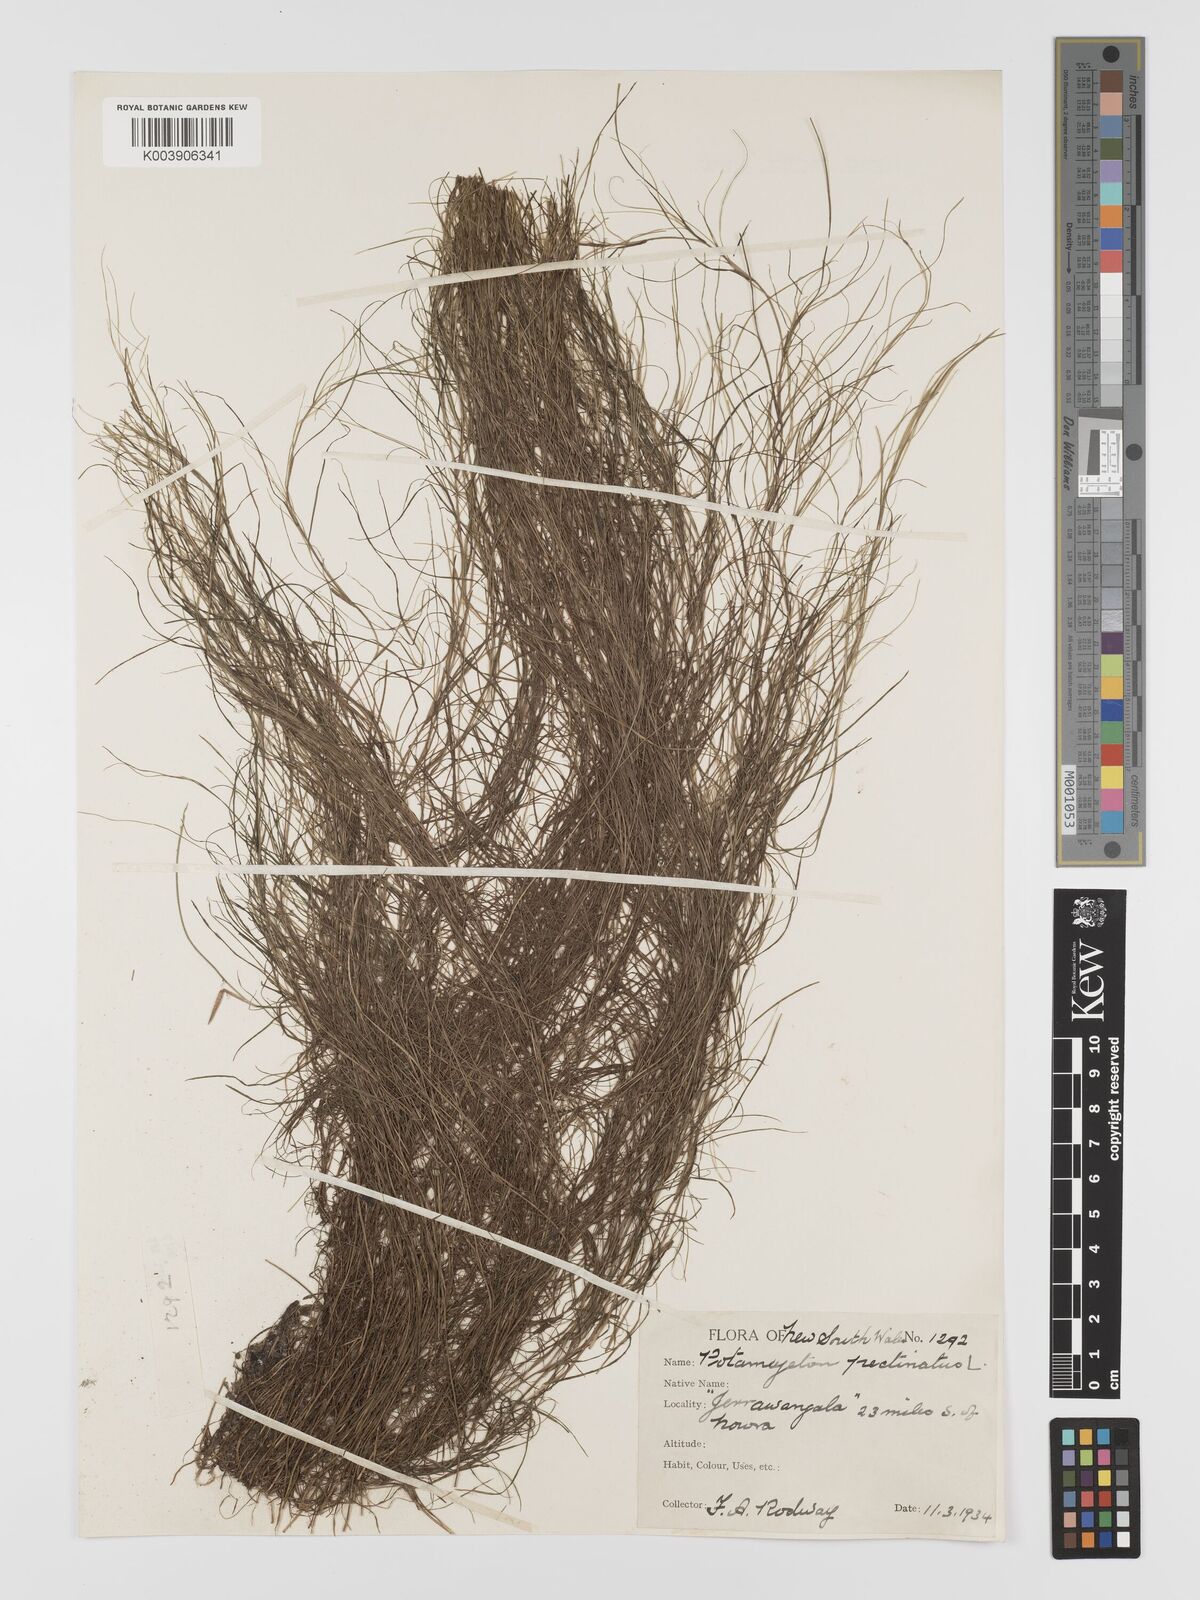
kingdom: Plantae
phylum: Tracheophyta
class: Liliopsida
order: Alismatales
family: Potamogetonaceae
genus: Stuckenia
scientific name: Stuckenia pectinata
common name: Sago pondweed
